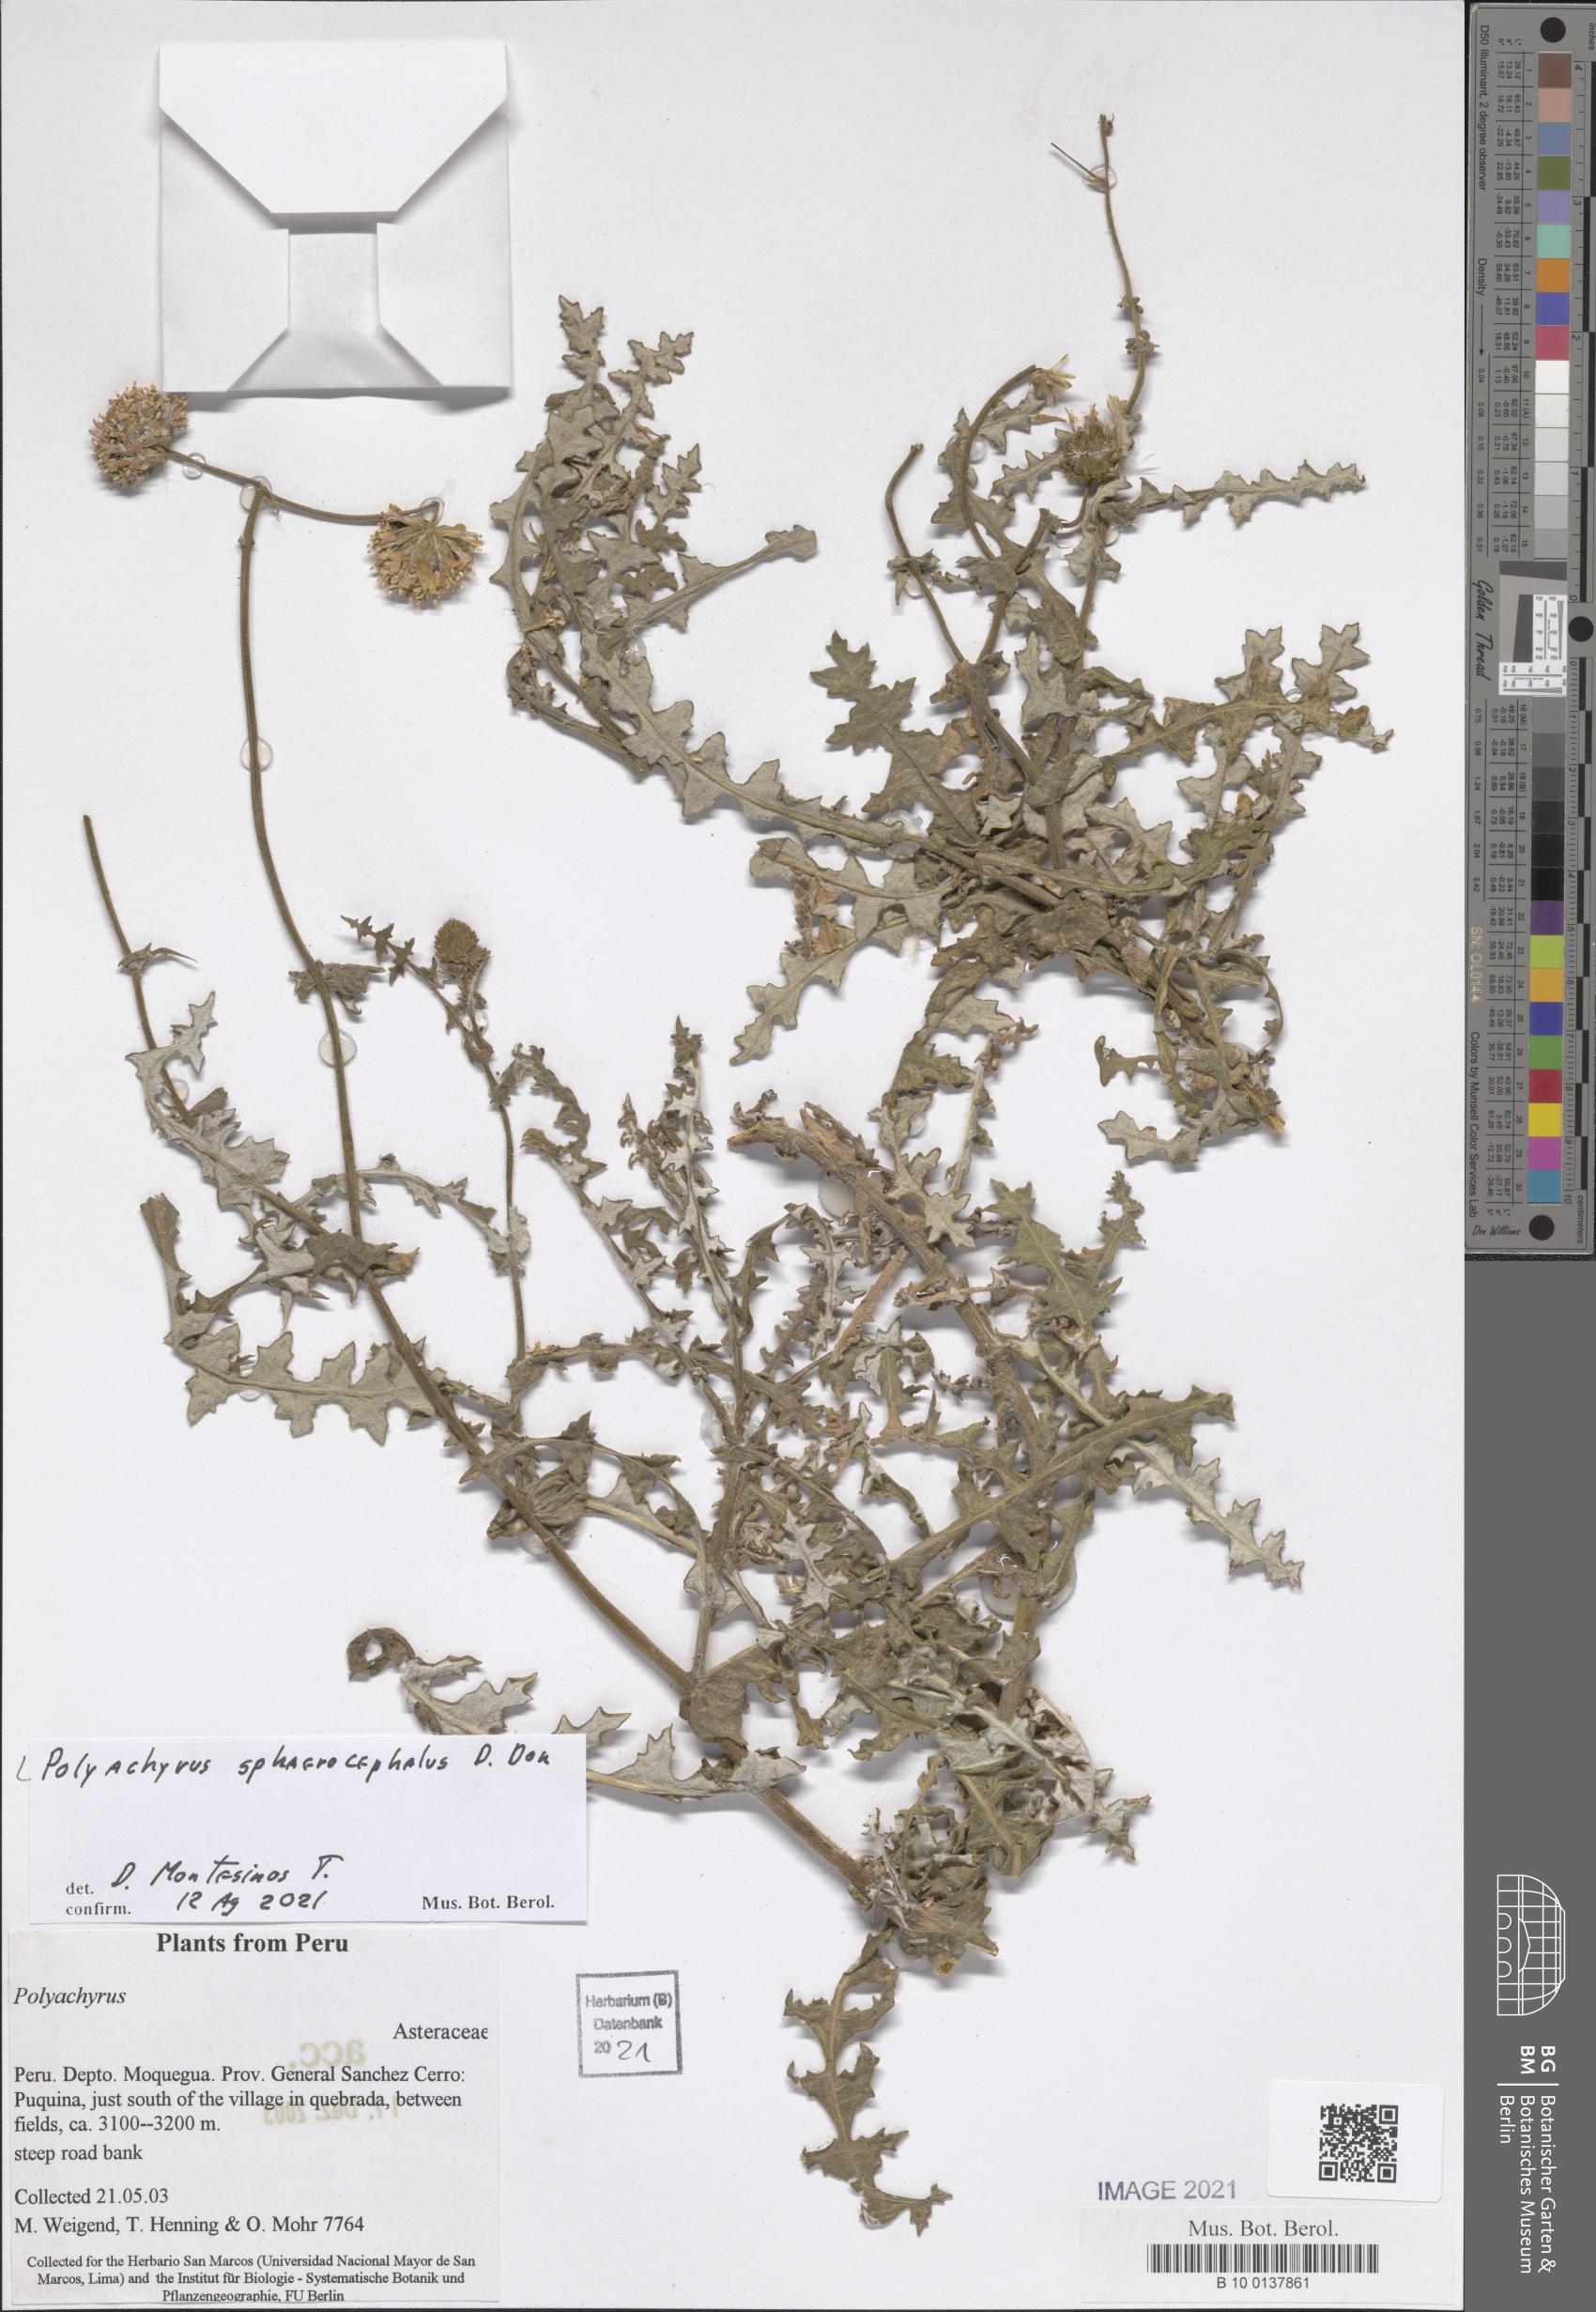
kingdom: Plantae
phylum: Tracheophyta
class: Magnoliopsida
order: Asterales
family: Asteraceae
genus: Polyachyrus
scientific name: Polyachyrus sphaerocephalus
